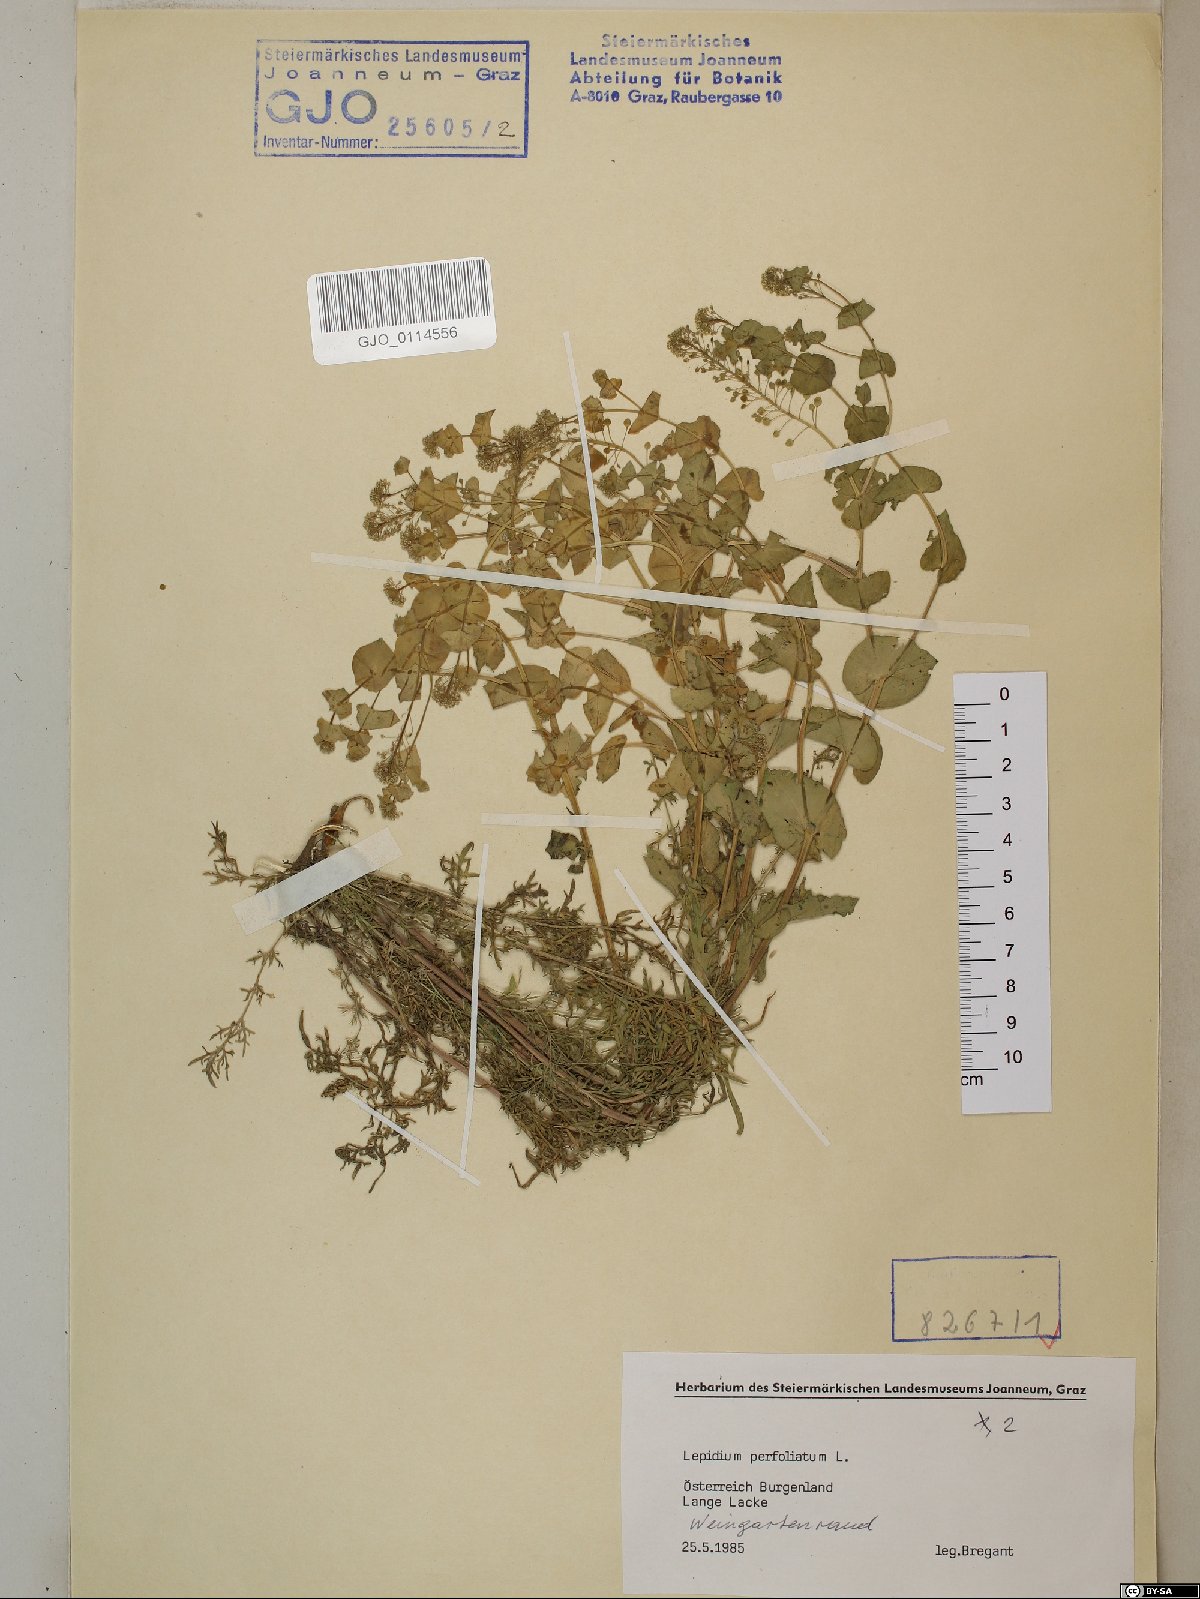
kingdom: Plantae
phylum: Tracheophyta
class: Magnoliopsida
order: Brassicales
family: Brassicaceae
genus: Lepidium
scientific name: Lepidium perfoliatum
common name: Perfoliate pepperwort
